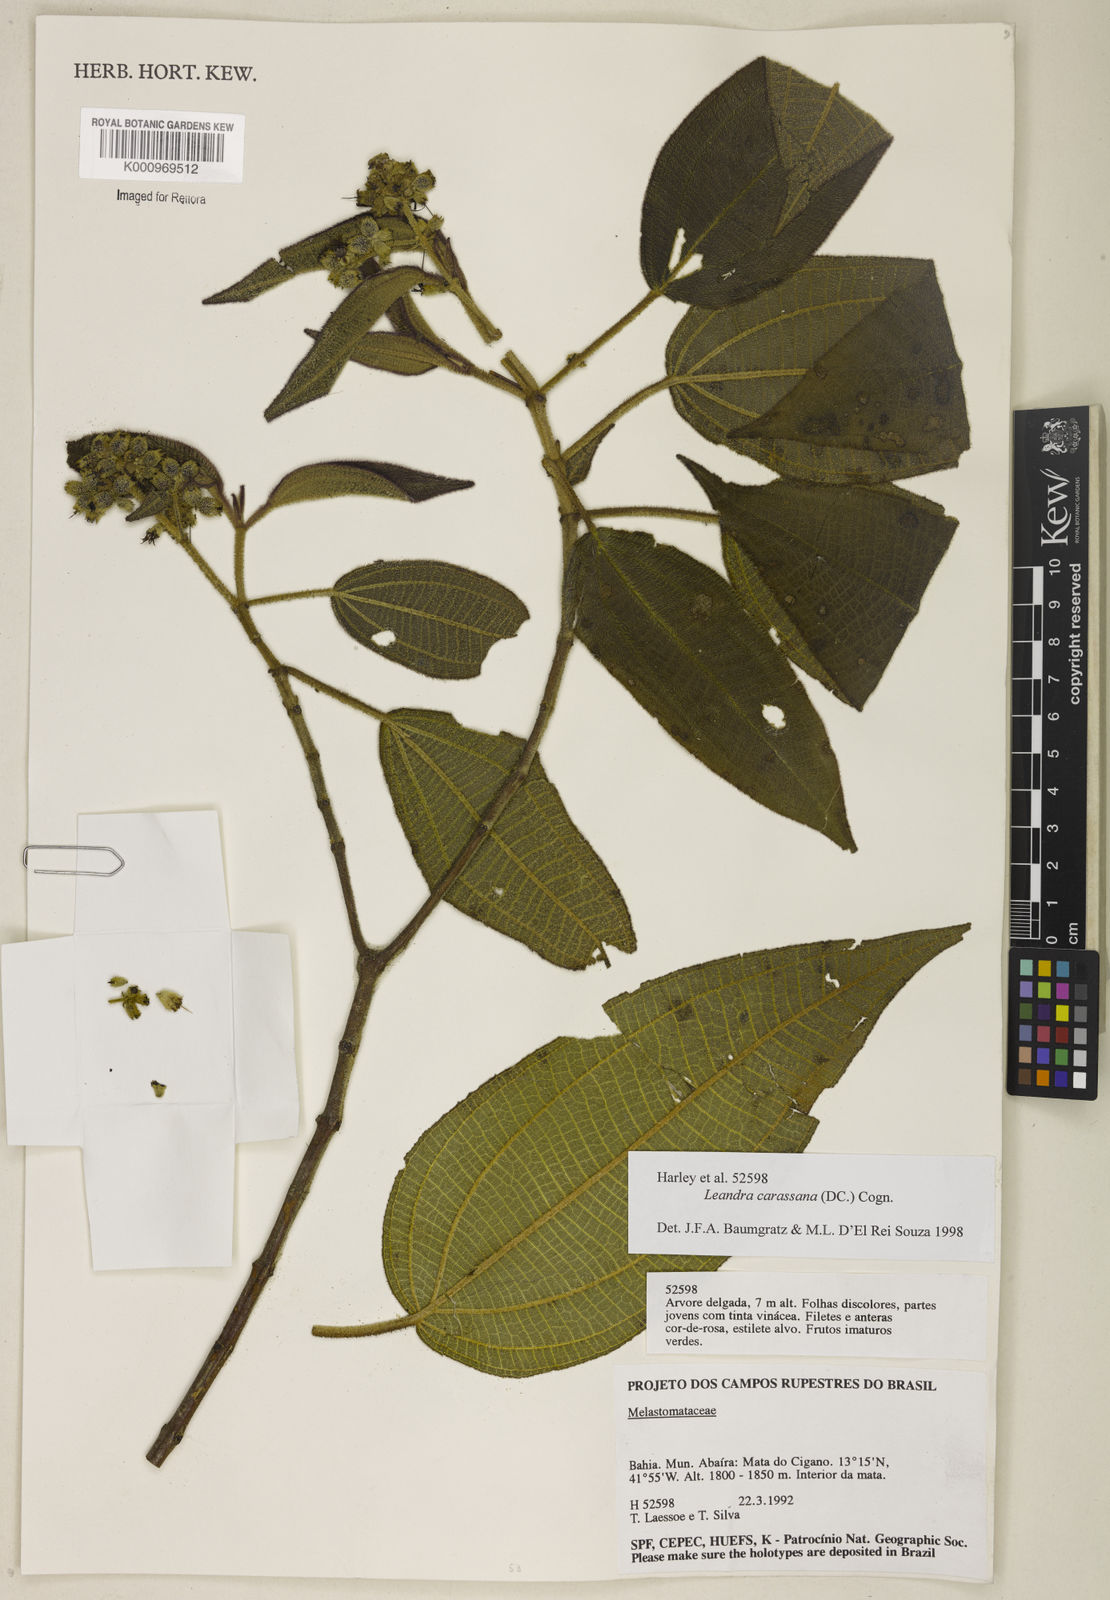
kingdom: Plantae
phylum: Tracheophyta
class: Magnoliopsida
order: Myrtales
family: Melastomataceae
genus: Miconia
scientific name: Miconia sublanata
